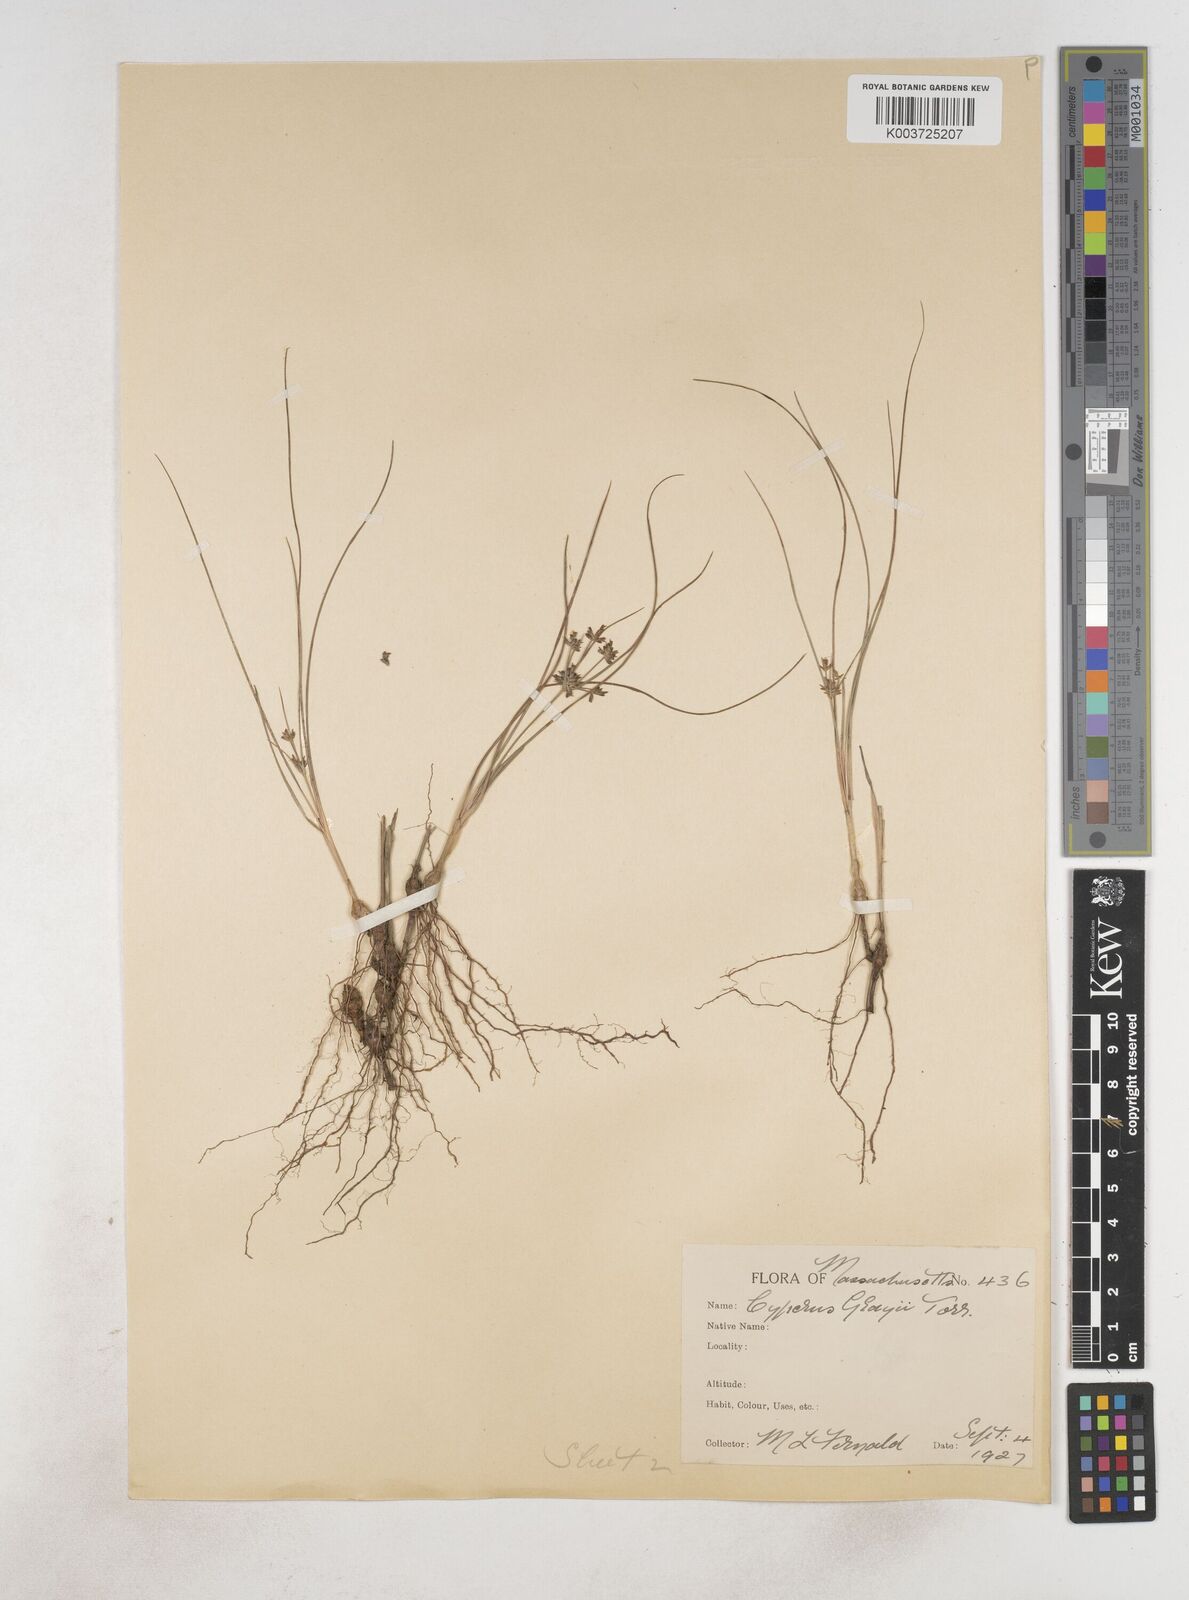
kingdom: Plantae
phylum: Tracheophyta
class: Liliopsida
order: Poales
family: Cyperaceae
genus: Cyperus
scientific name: Cyperus grayi
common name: Gray's flat sedge
